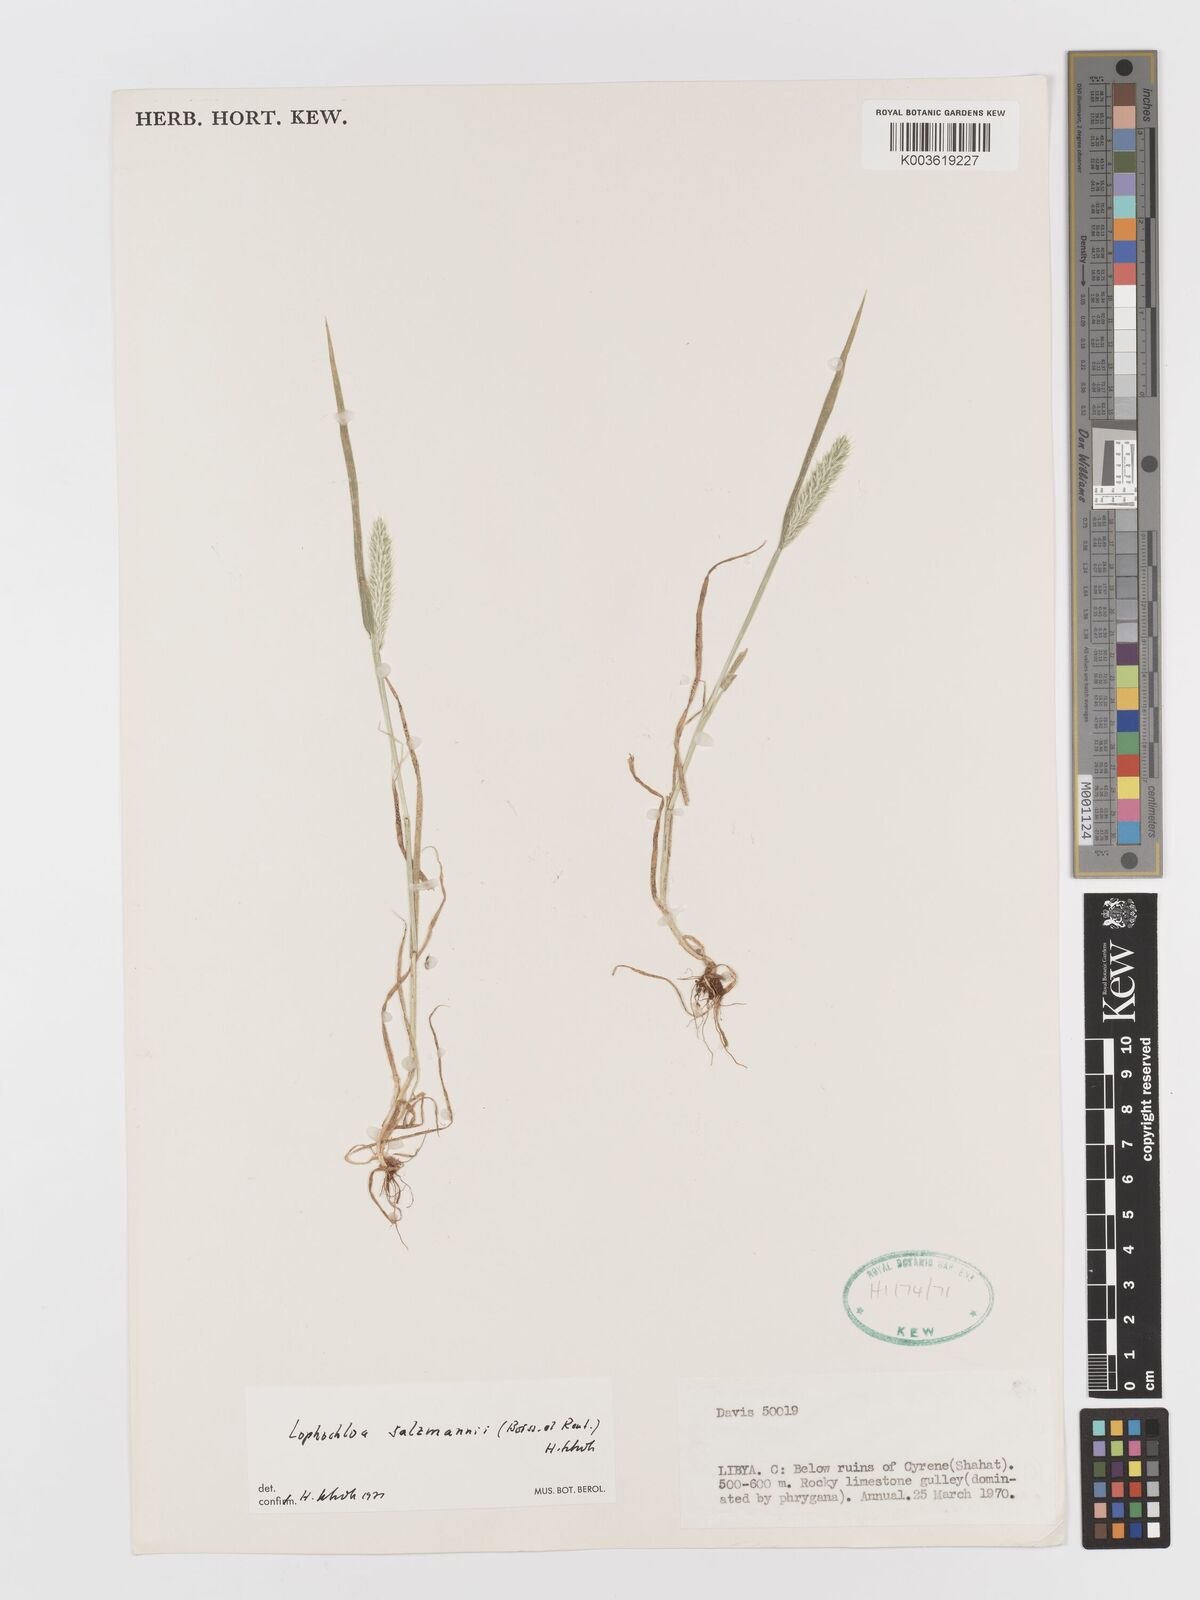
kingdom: Plantae
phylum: Tracheophyta
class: Liliopsida
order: Poales
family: Poaceae
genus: Rostraria
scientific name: Rostraria salzmannii
